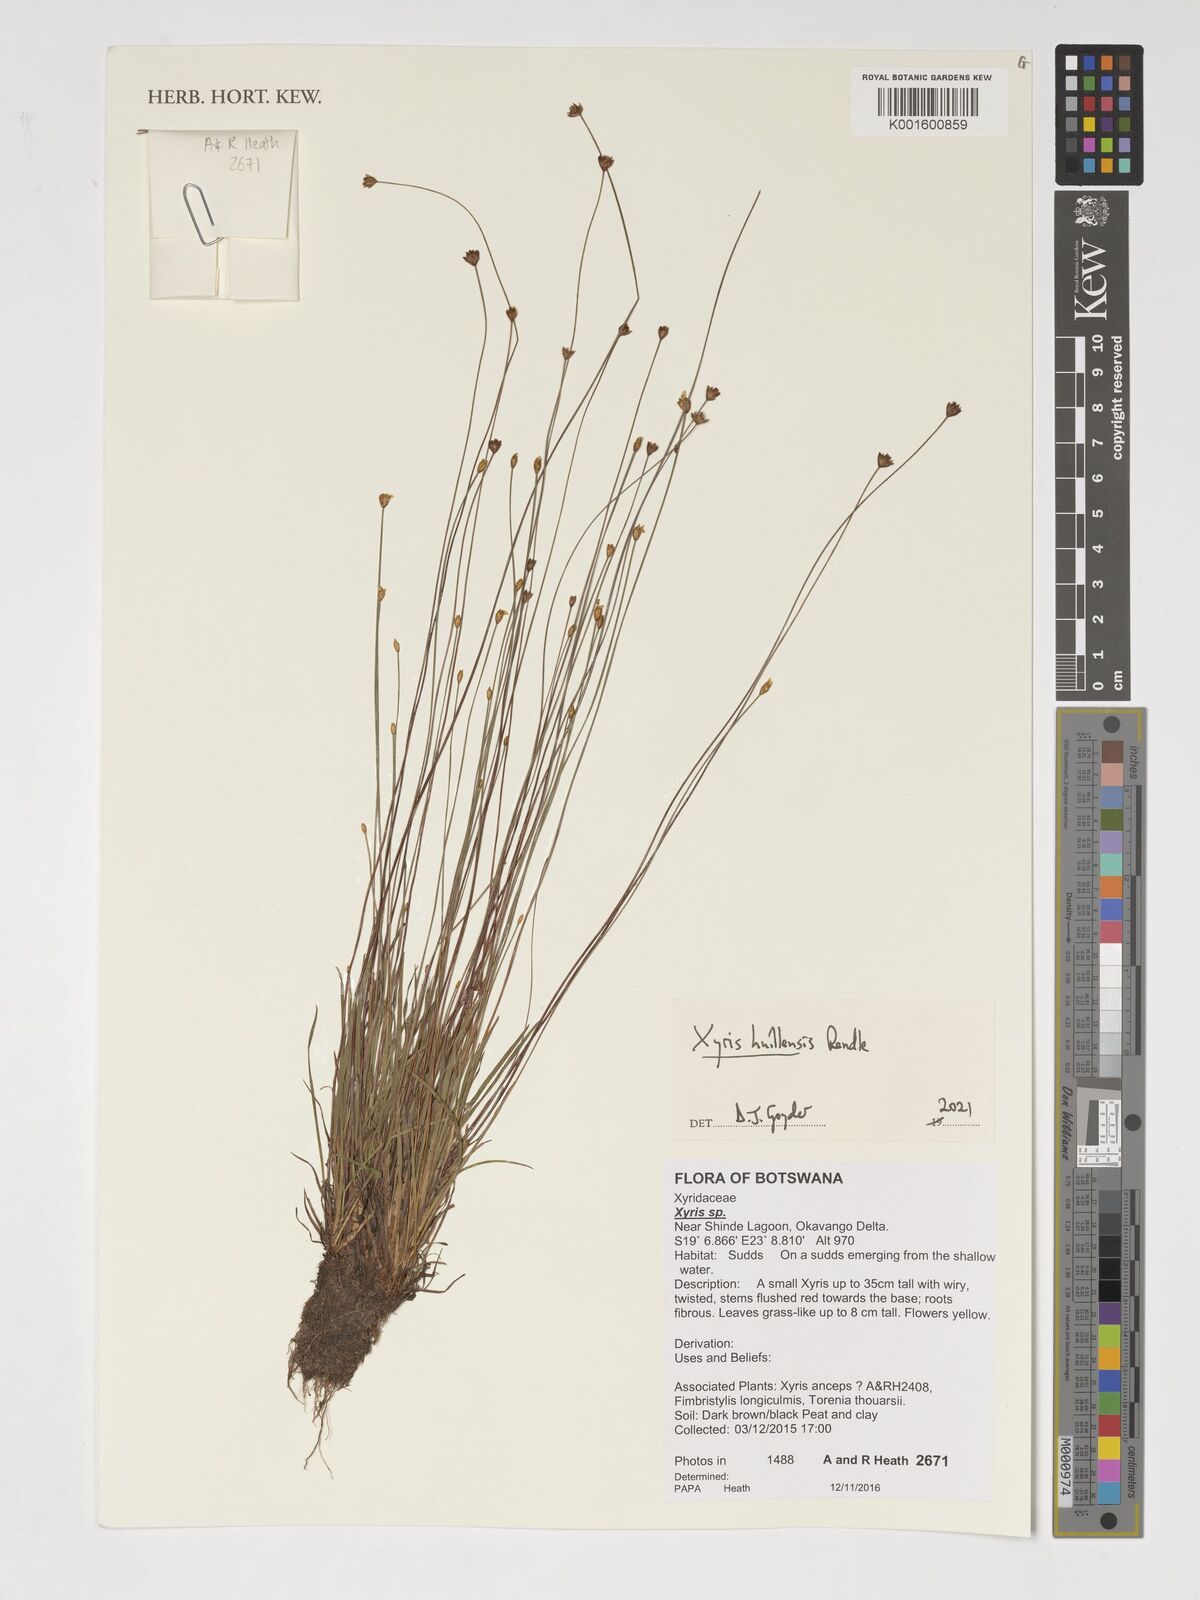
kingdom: Plantae
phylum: Tracheophyta
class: Liliopsida
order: Poales
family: Xyridaceae
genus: Xyris
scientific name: Xyris huillensis
